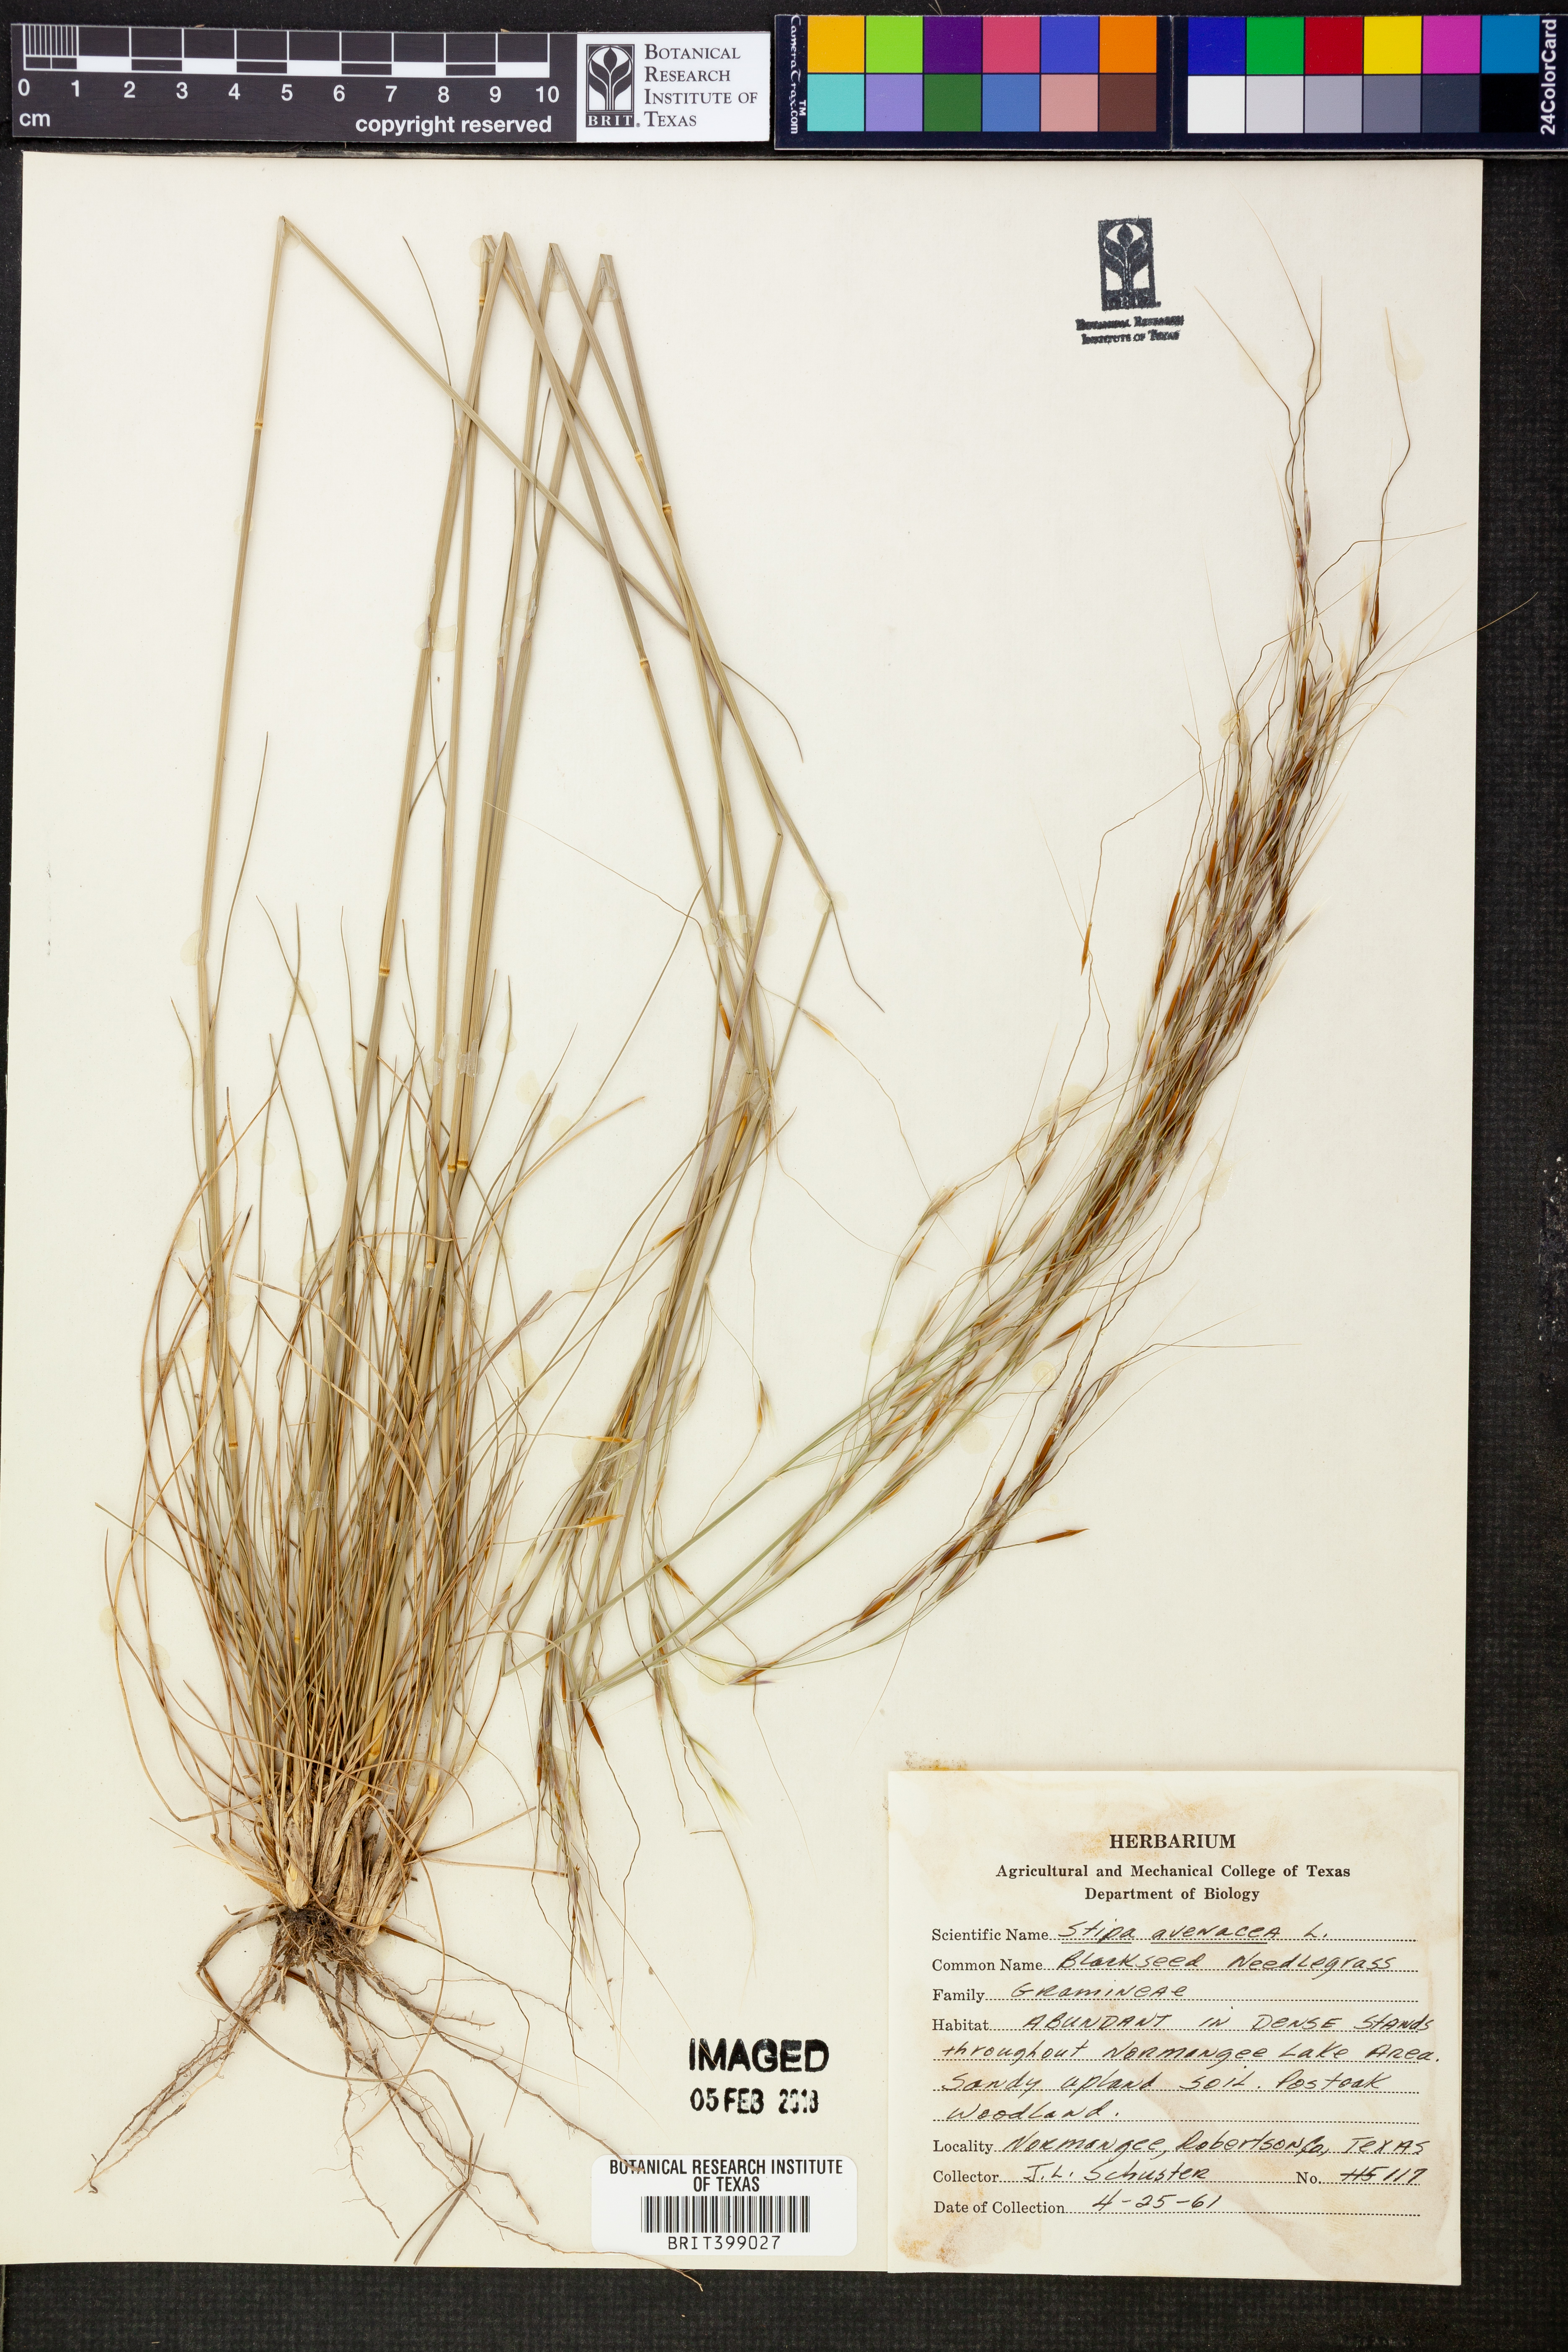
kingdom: Plantae
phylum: Tracheophyta
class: Liliopsida
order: Poales
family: Poaceae
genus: Piptochaetium
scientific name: Piptochaetium avenaceum
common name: Black bunchgrass
